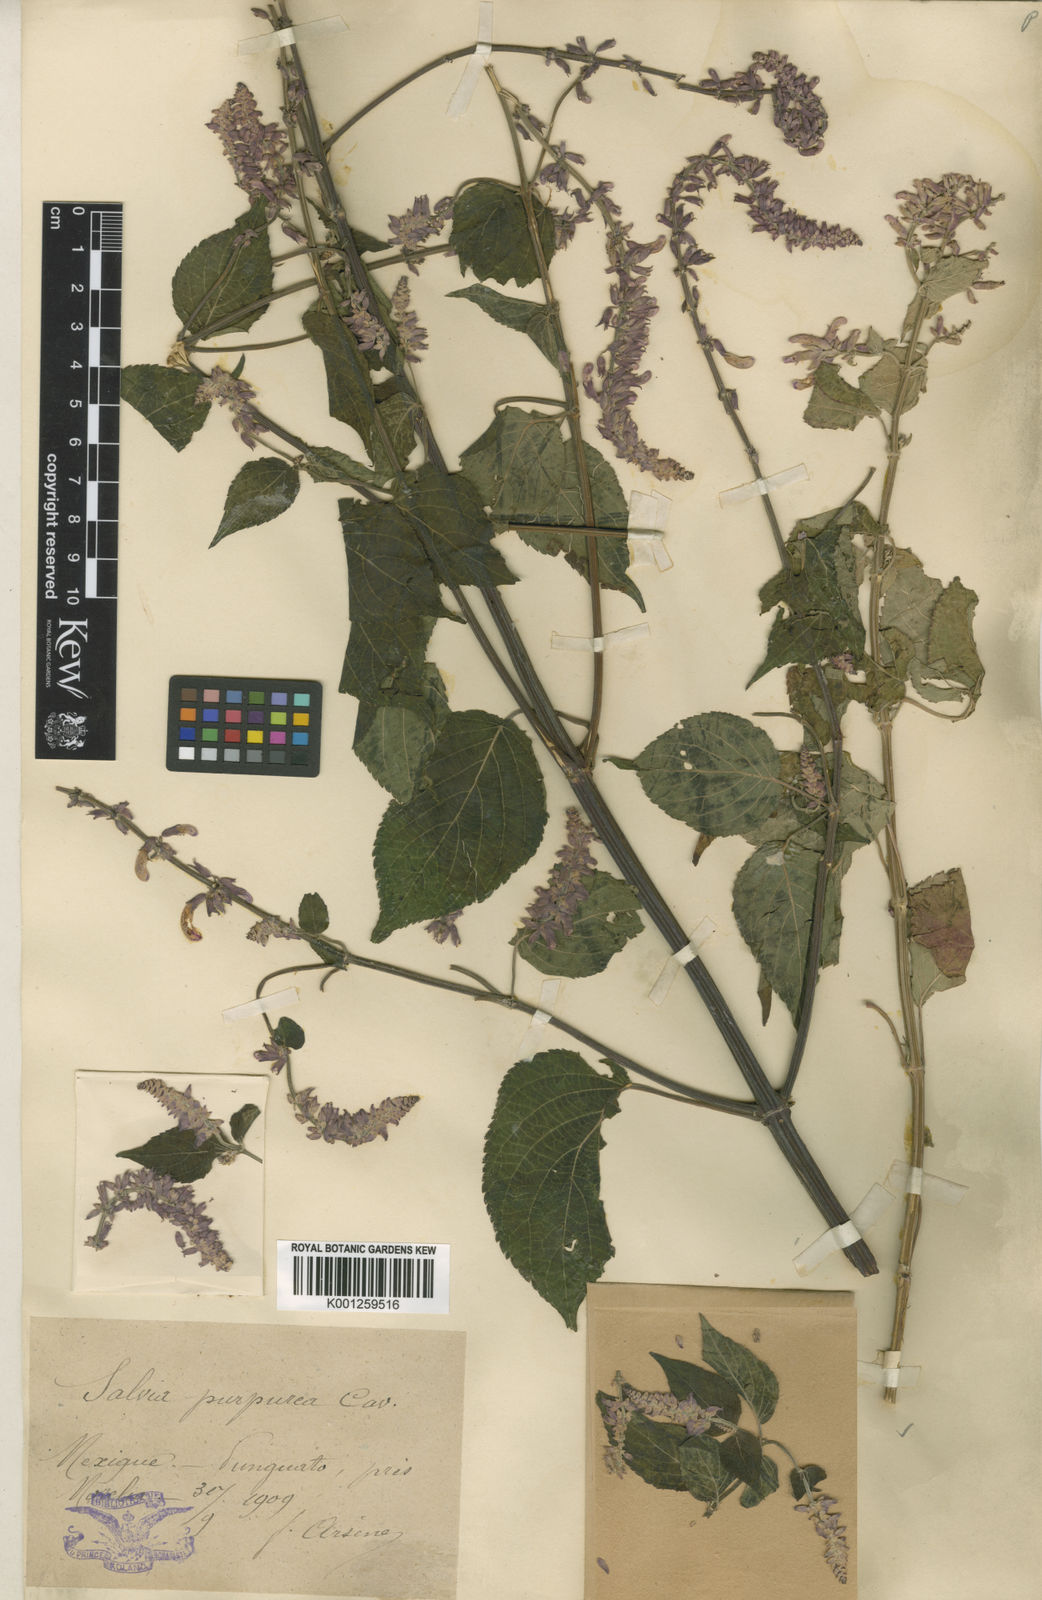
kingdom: Plantae
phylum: Tracheophyta
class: Magnoliopsida
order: Lamiales
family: Lamiaceae
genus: Salvia
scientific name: Salvia
